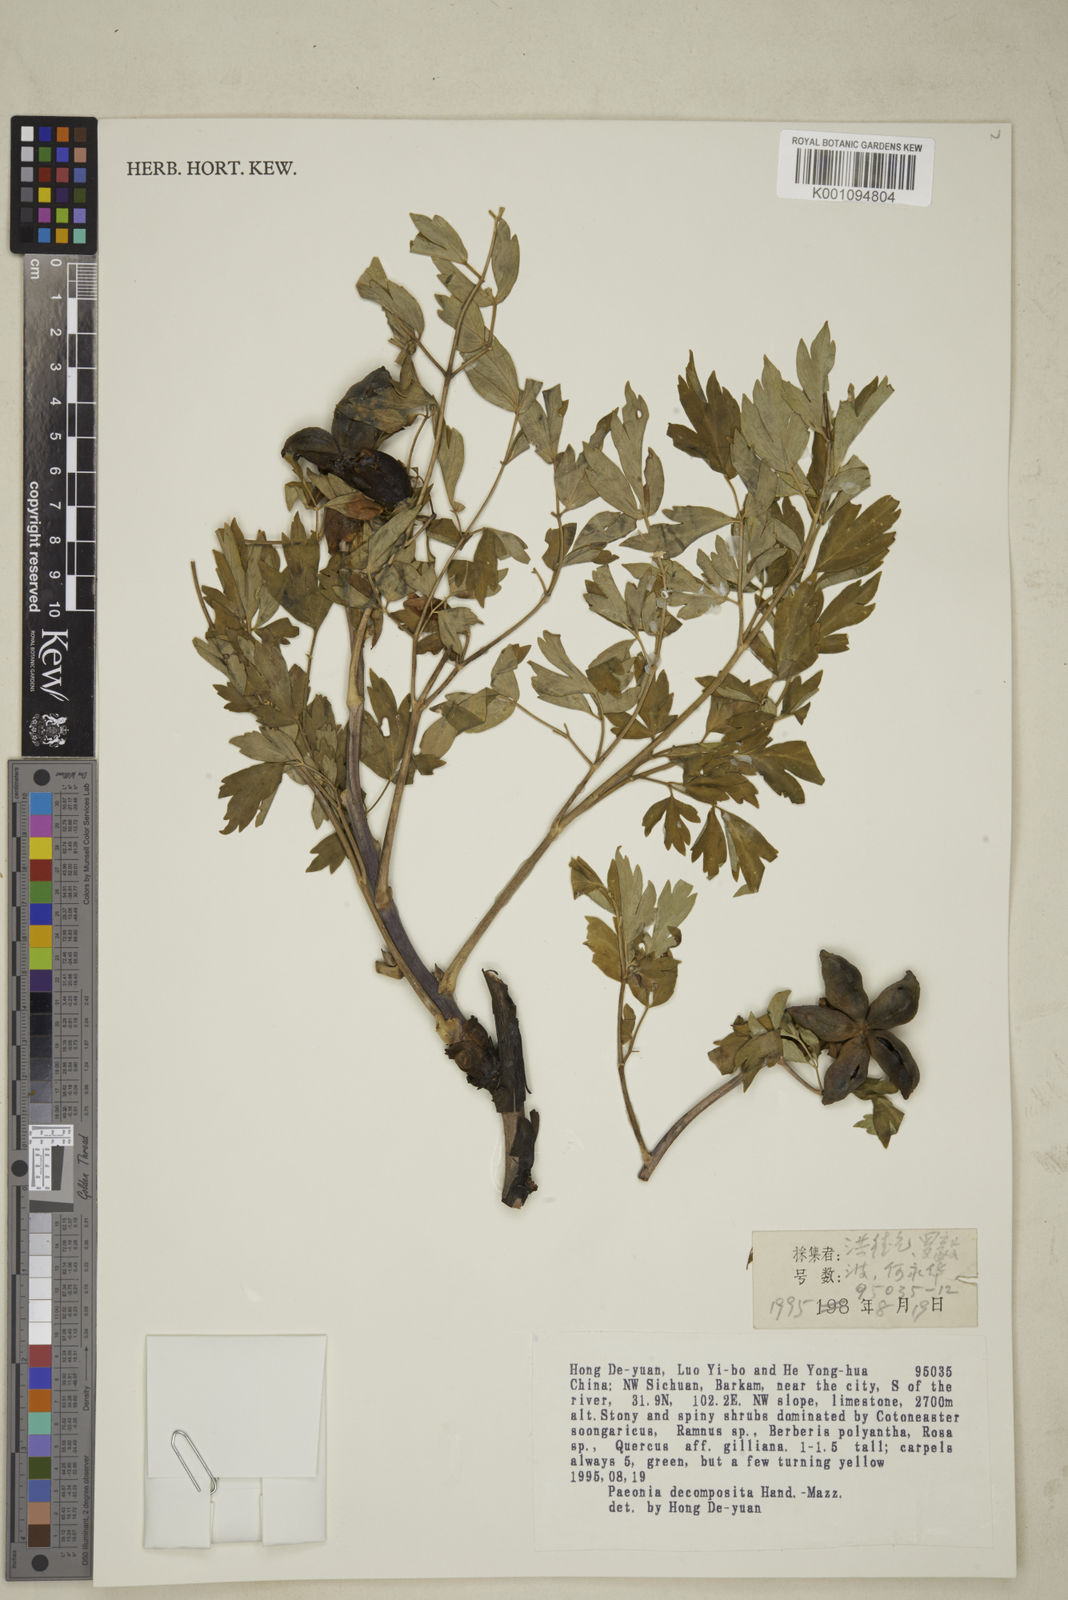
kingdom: Plantae
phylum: Tracheophyta
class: Magnoliopsida
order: Saxifragales
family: Paeoniaceae
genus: Paeonia
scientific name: Paeonia suffruticosa
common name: Moutan peony
